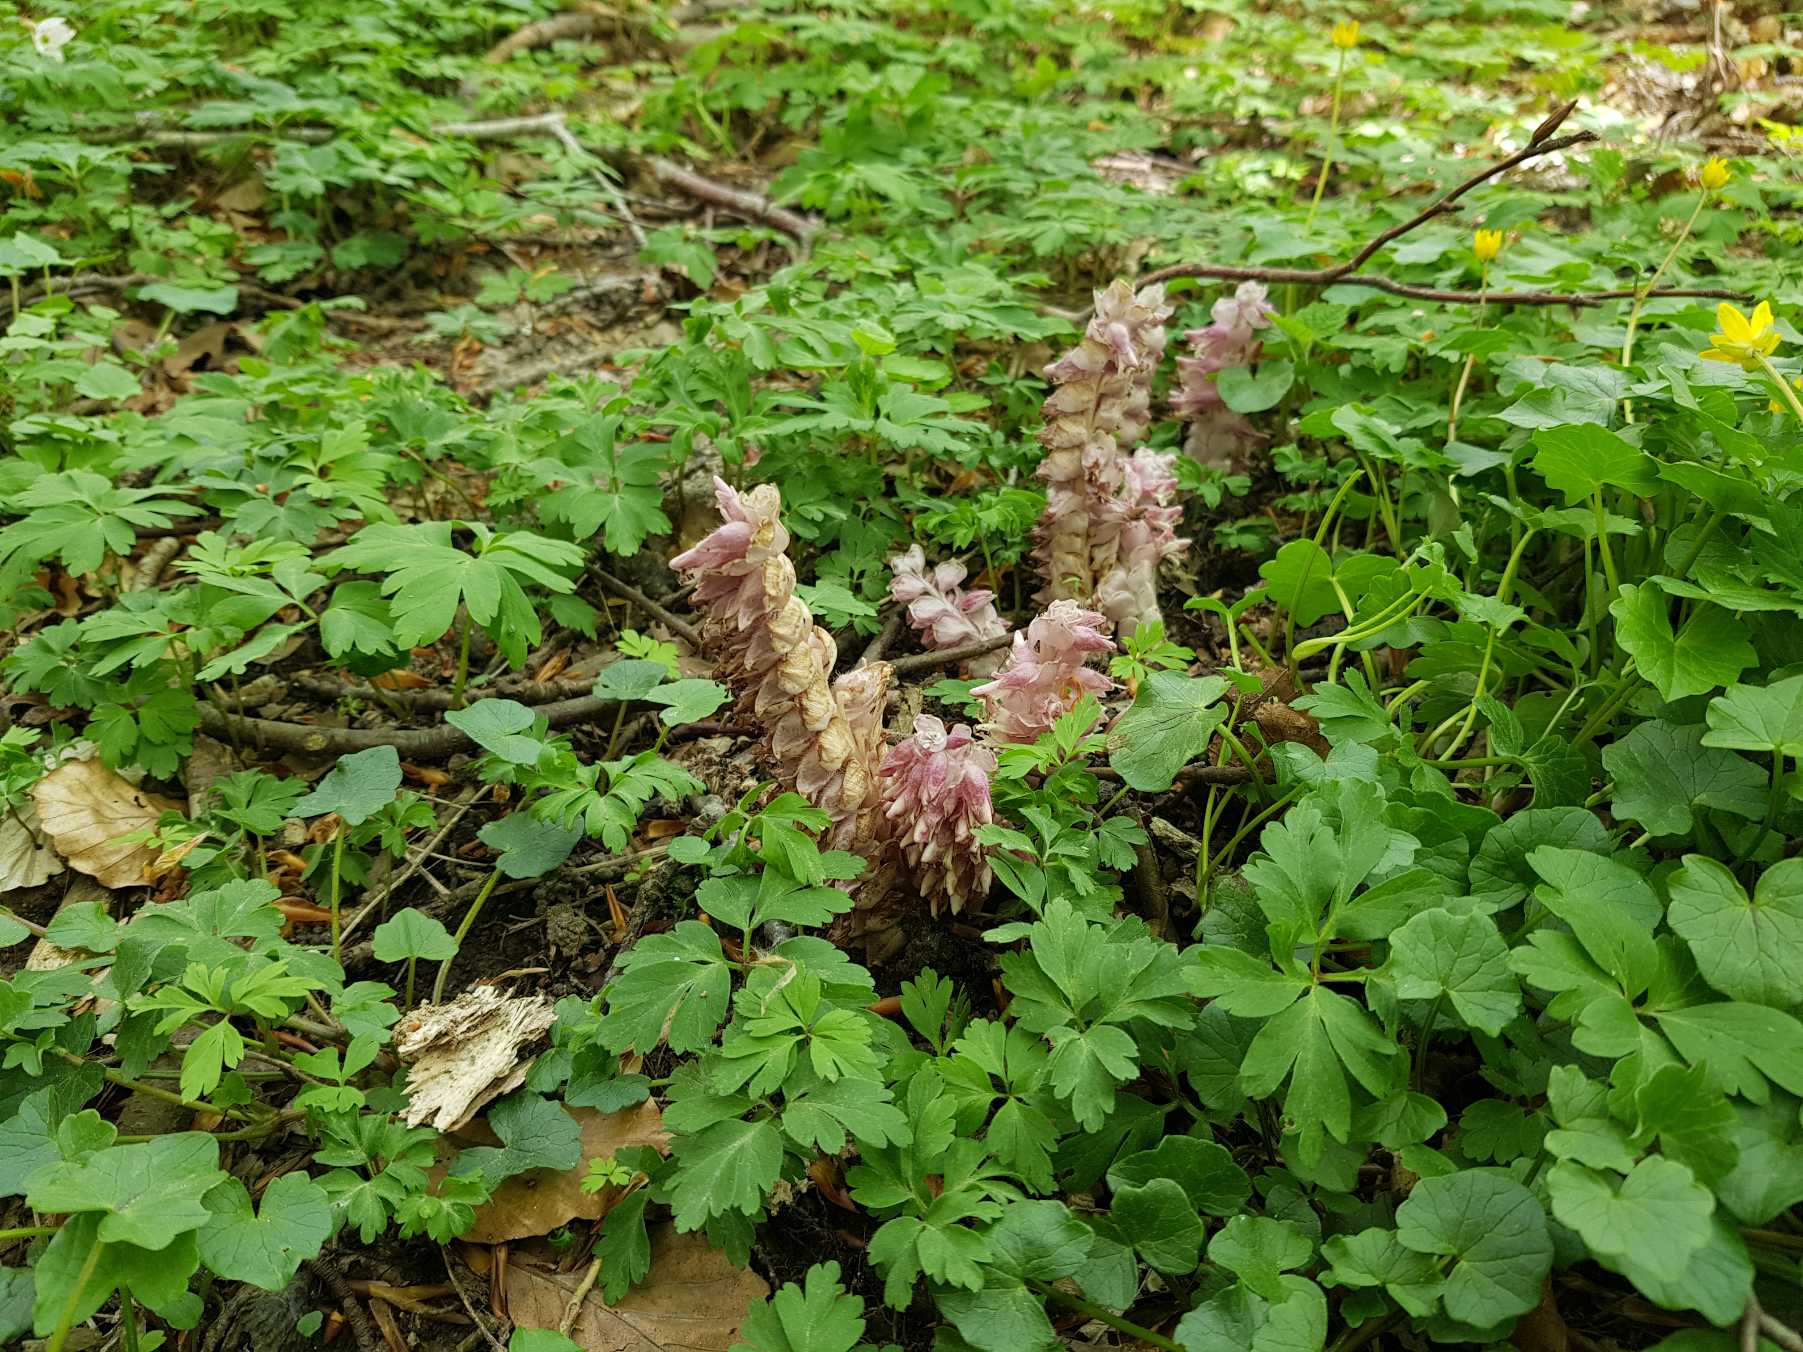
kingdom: Plantae
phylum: Tracheophyta
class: Magnoliopsida
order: Lamiales
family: Orobanchaceae
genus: Lathraea
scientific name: Lathraea squamaria
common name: Skælrod
